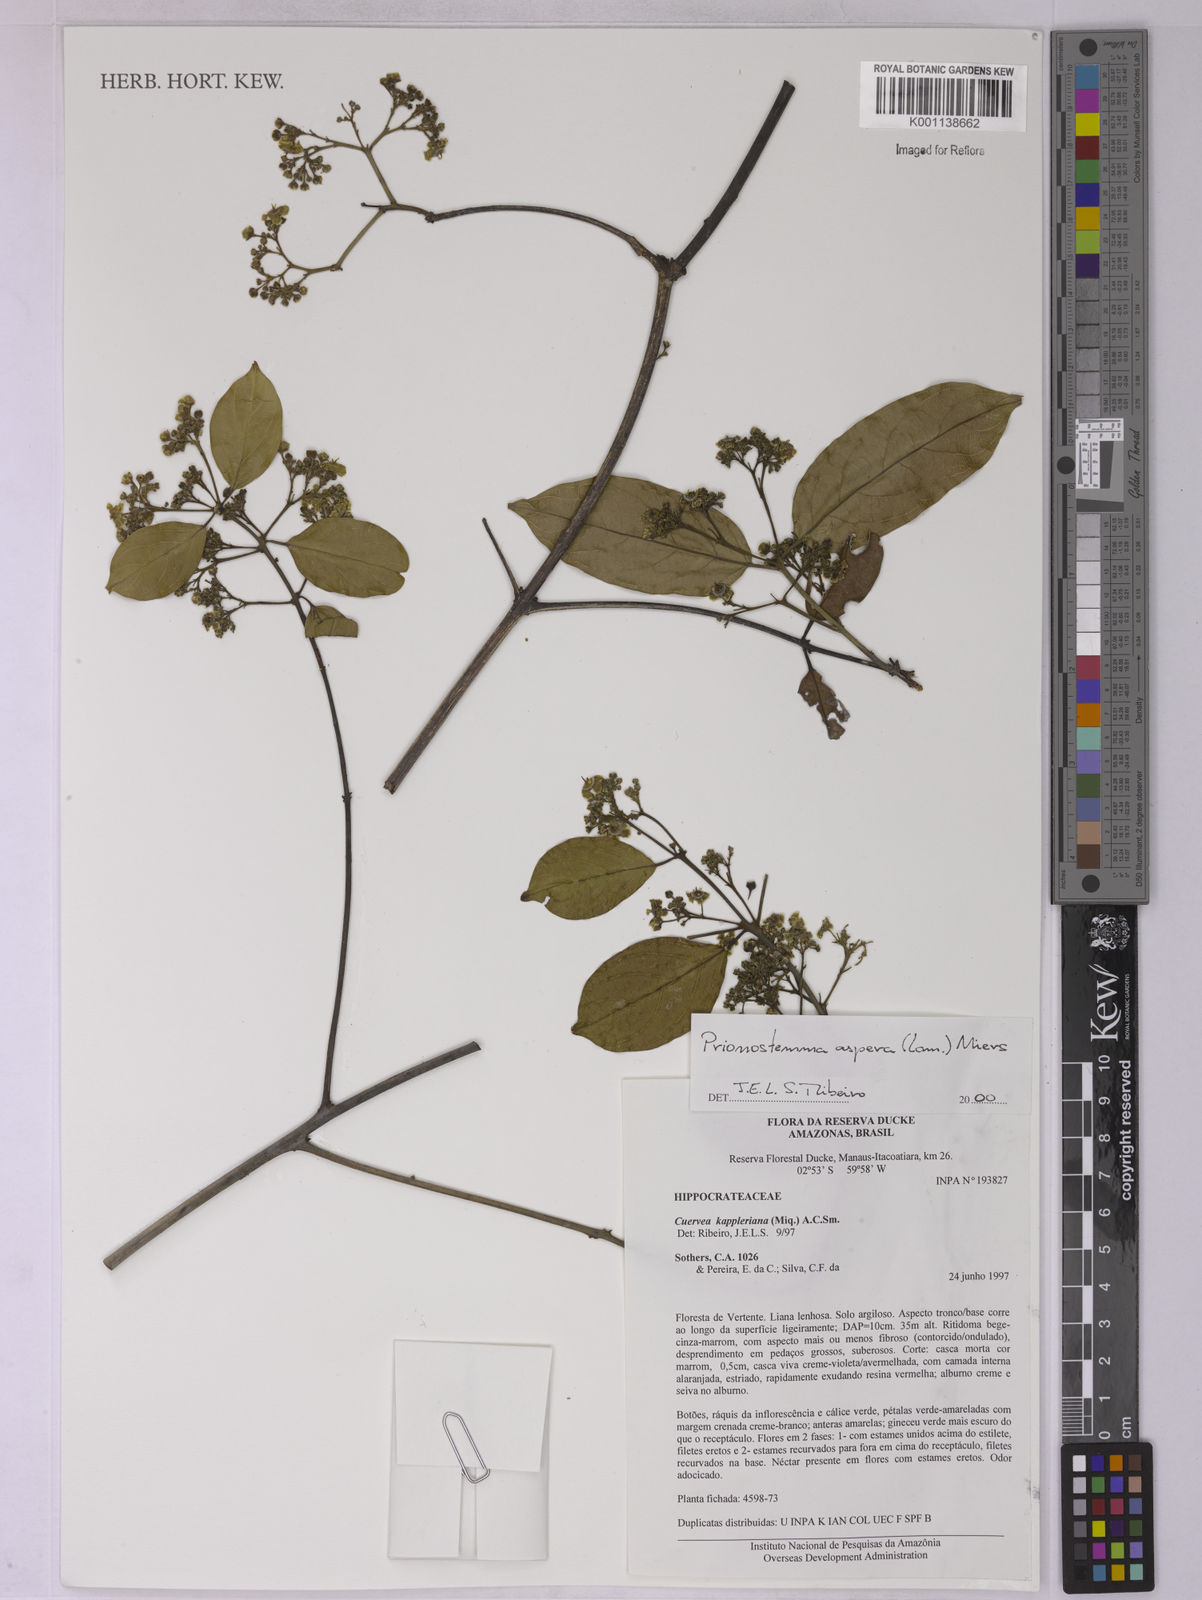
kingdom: Plantae
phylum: Tracheophyta
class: Magnoliopsida
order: Celastrales
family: Celastraceae
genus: Prionostemma
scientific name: Prionostemma aspera
